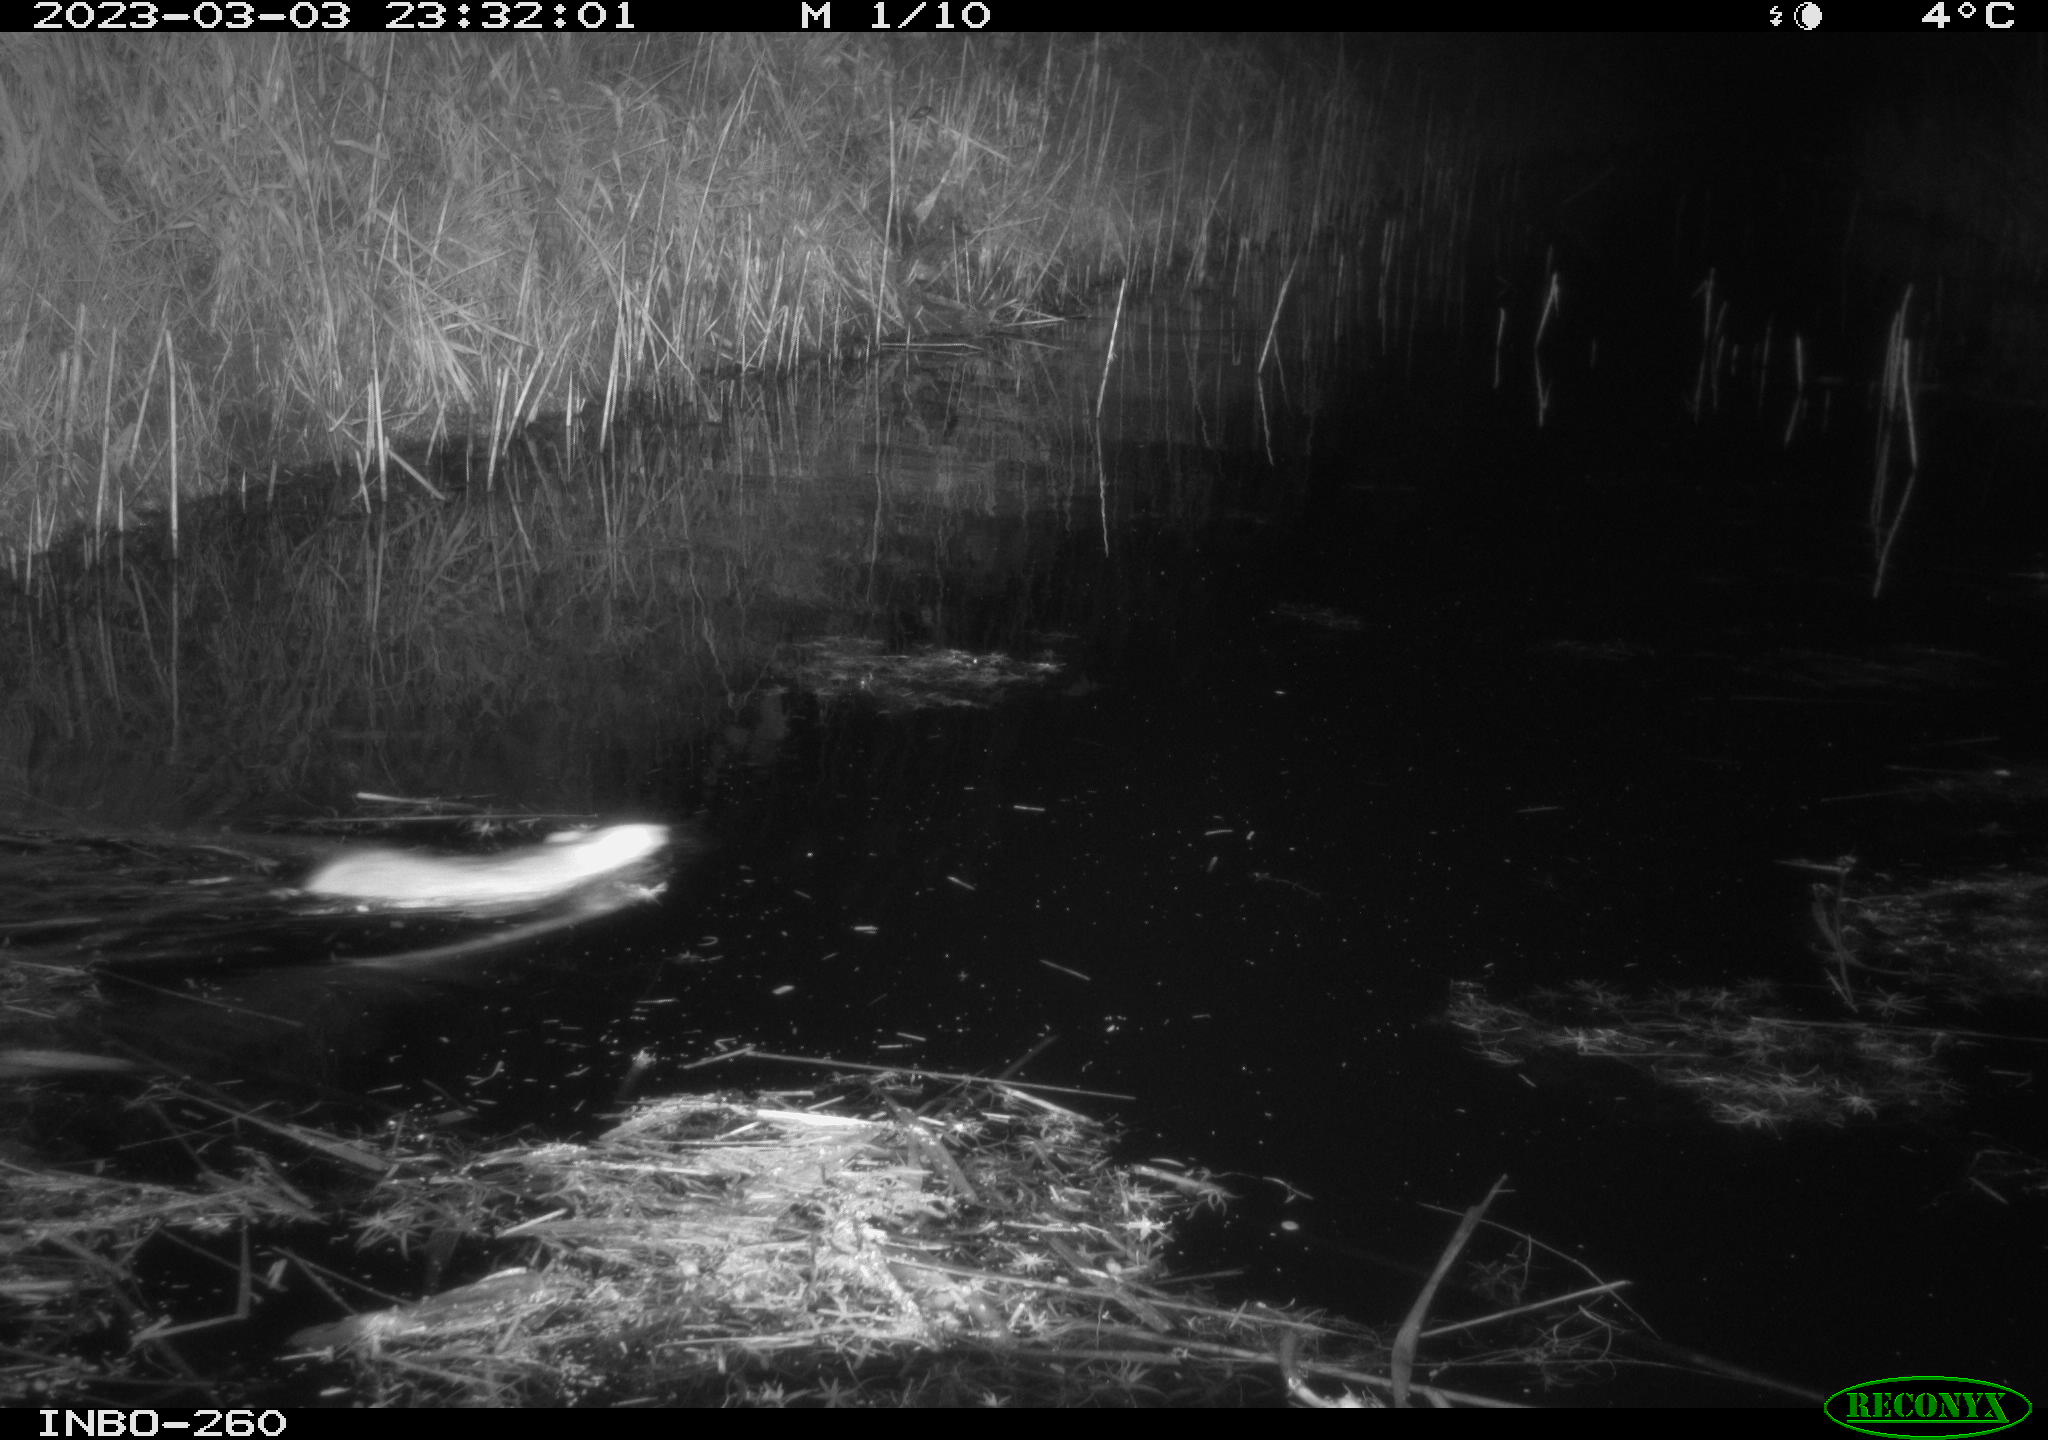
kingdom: Animalia
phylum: Chordata
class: Mammalia
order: Rodentia
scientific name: Rodentia
